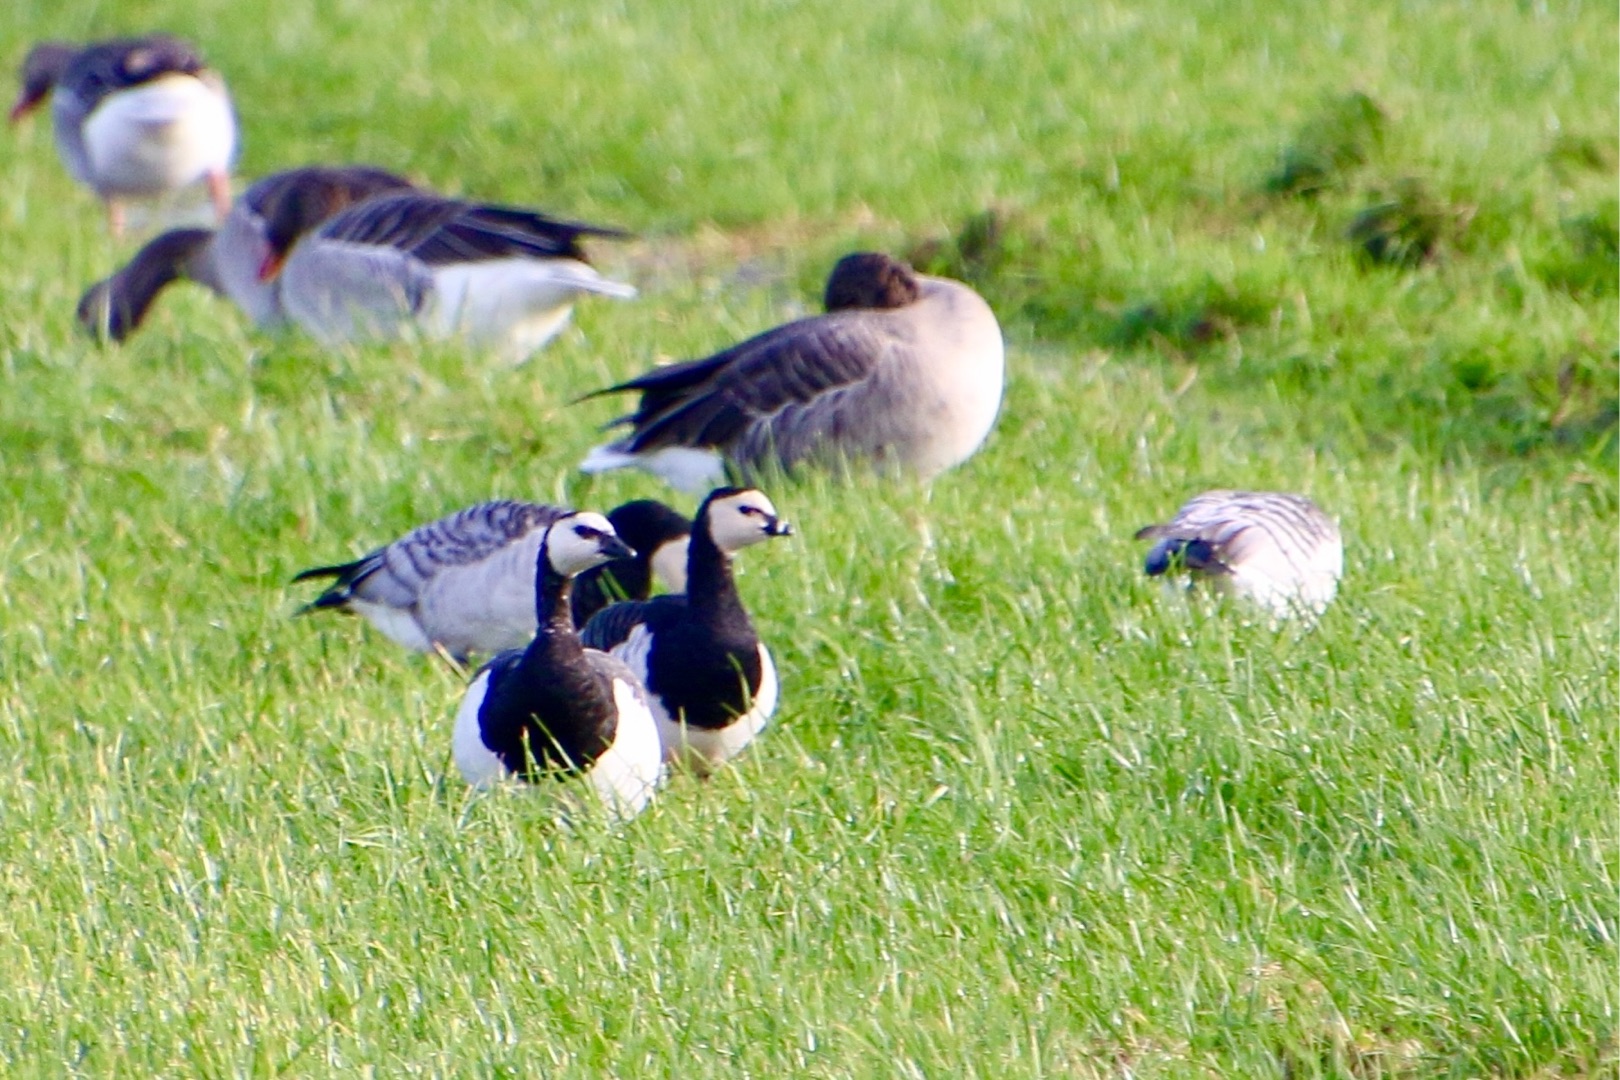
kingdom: Animalia
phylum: Chordata
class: Aves
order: Anseriformes
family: Anatidae
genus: Branta
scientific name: Branta leucopsis
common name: Bramgås
